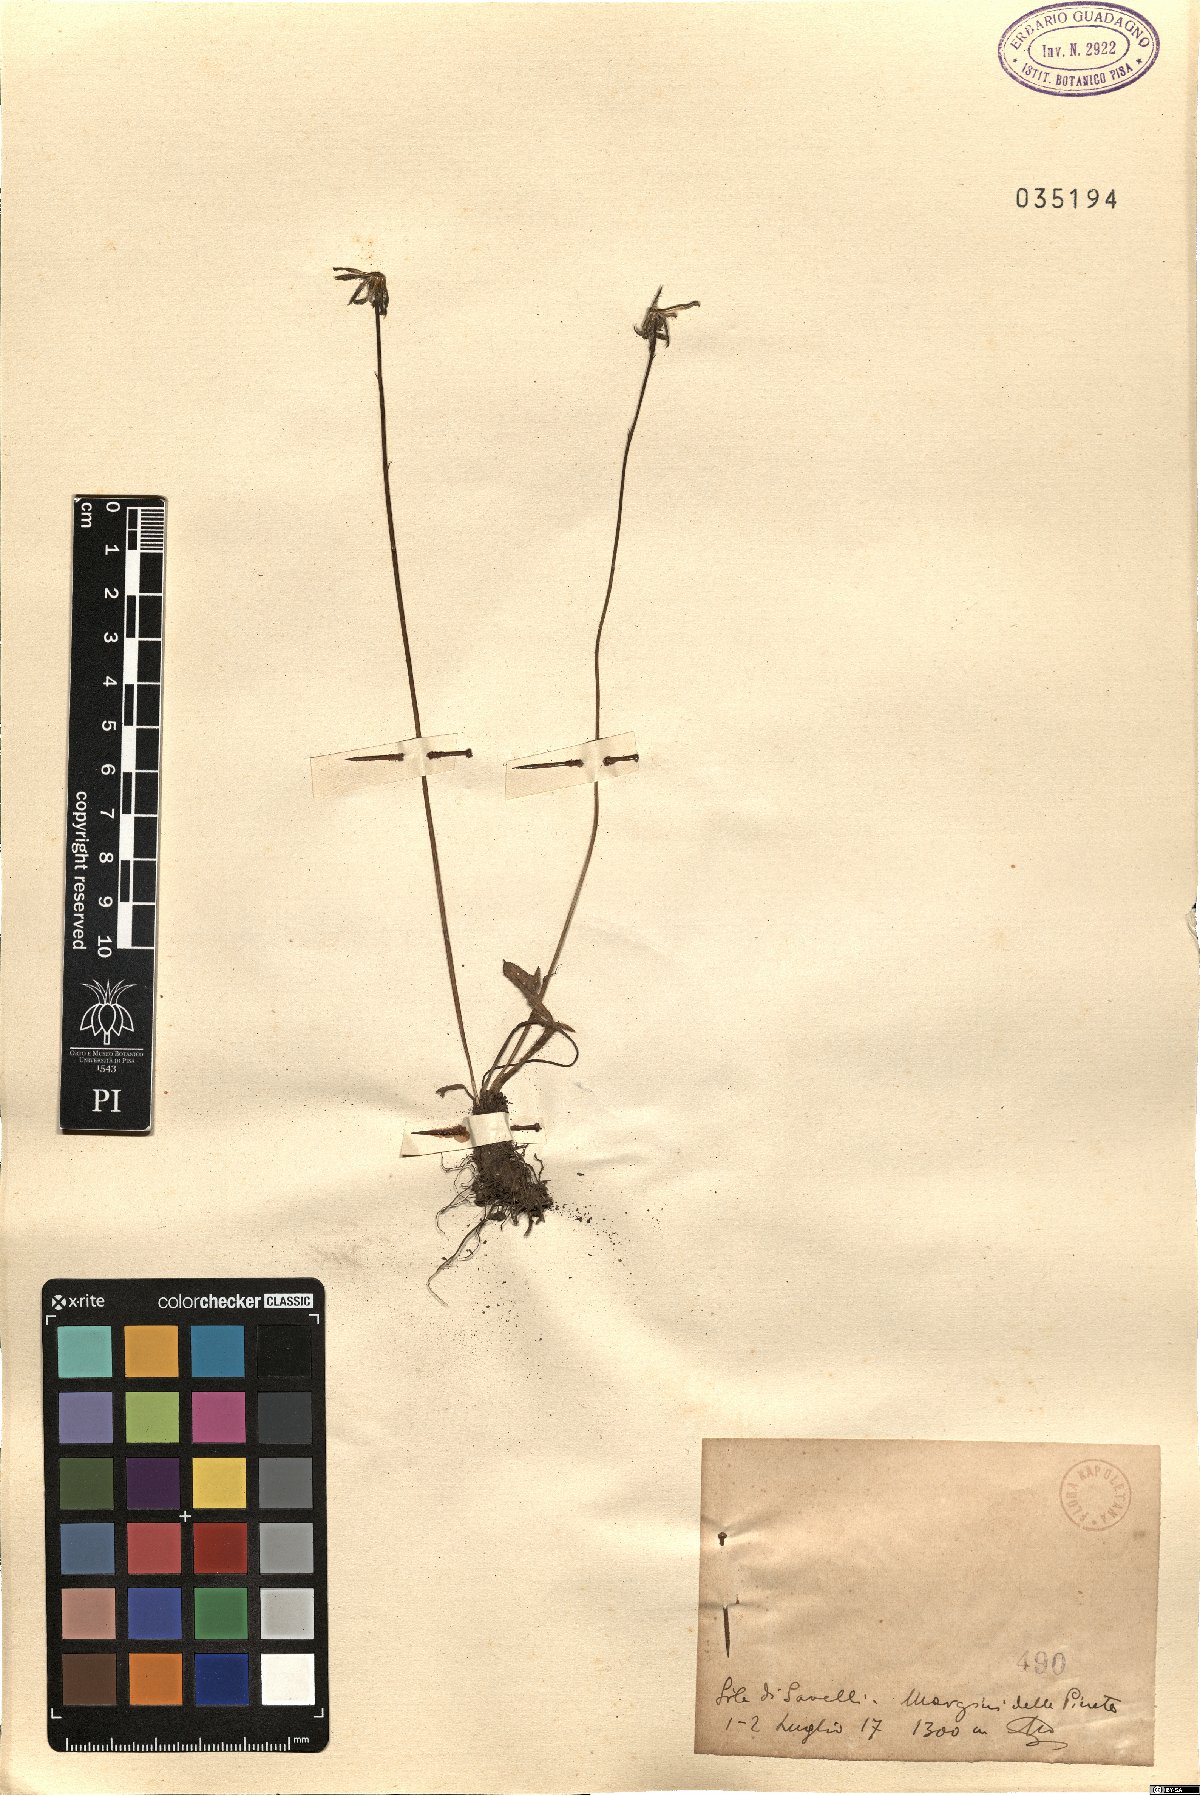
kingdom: Plantae
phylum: Tracheophyta
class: Magnoliopsida
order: Asterales
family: Asteraceae
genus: Thrincia
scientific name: Thrincia
